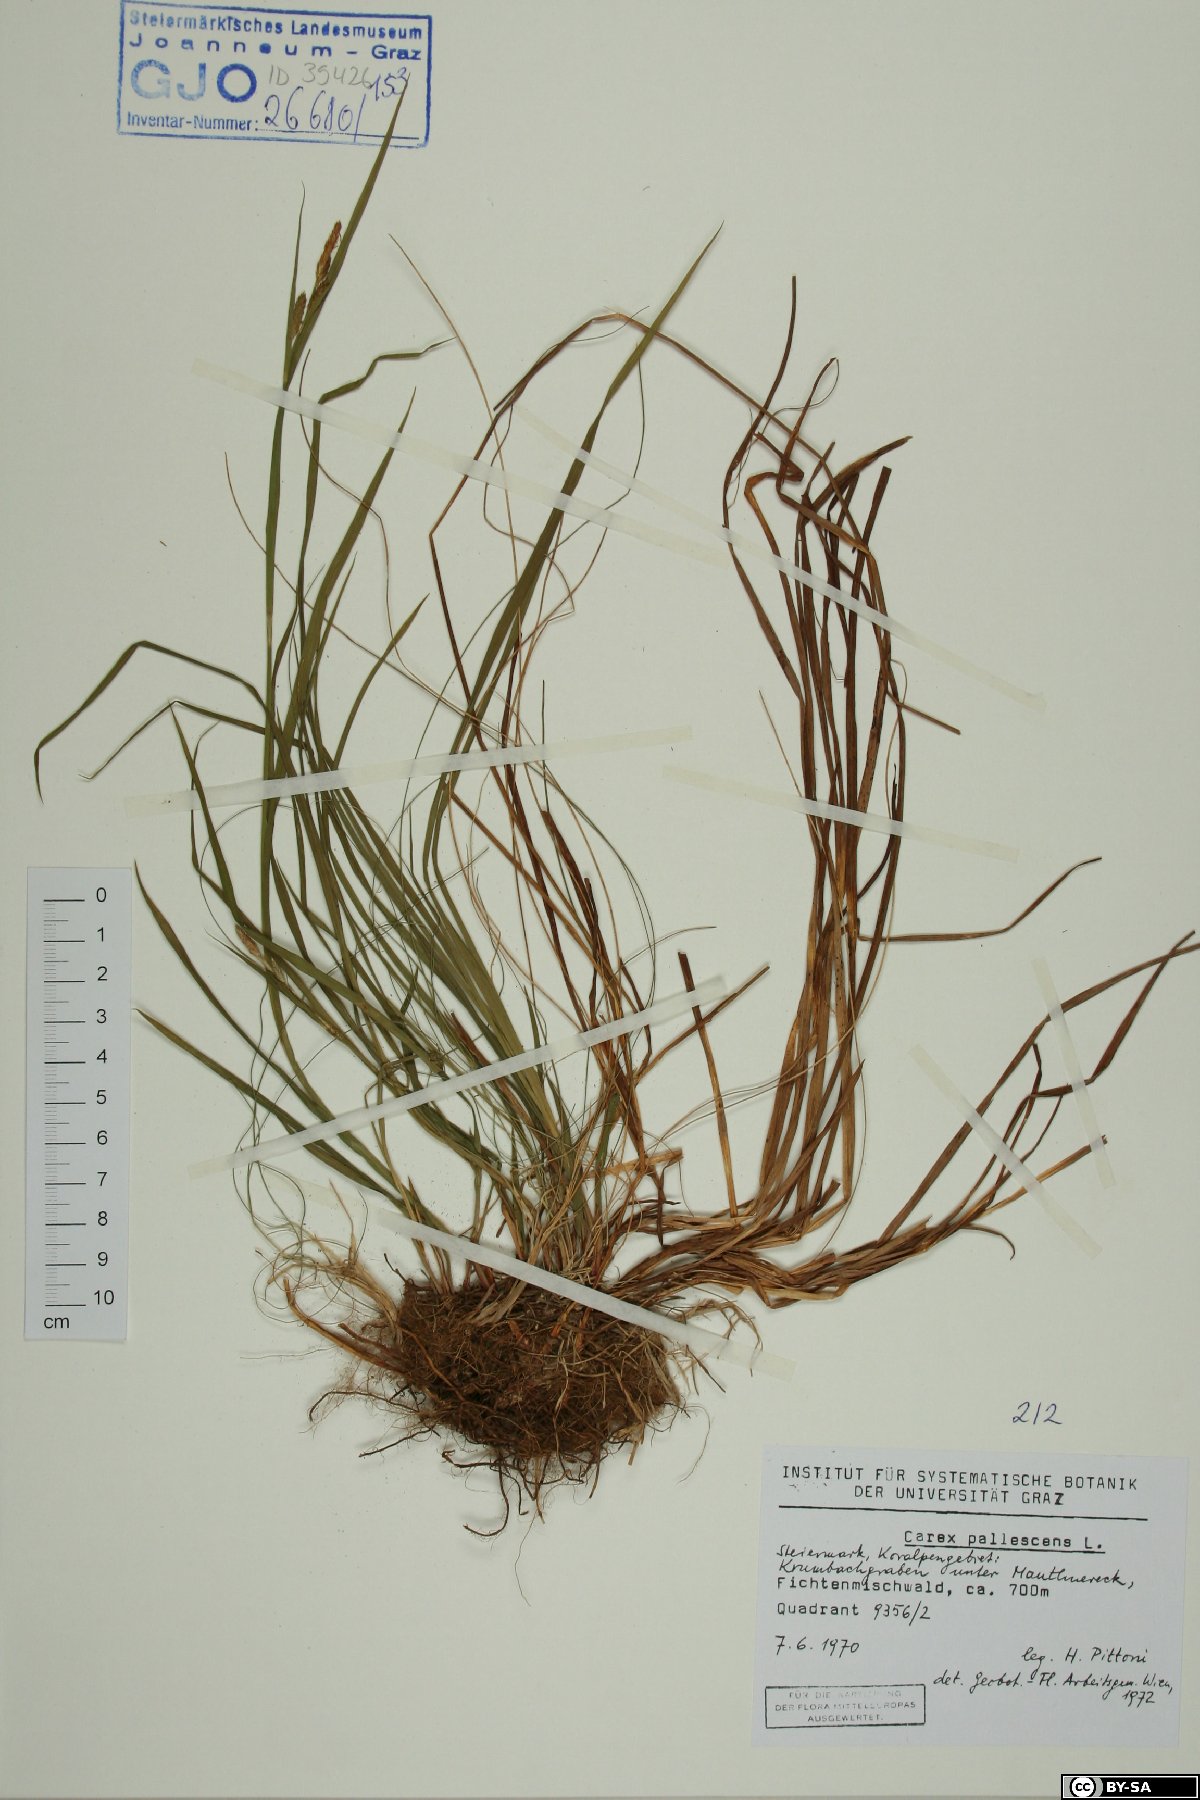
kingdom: Plantae
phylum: Tracheophyta
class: Liliopsida
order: Poales
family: Cyperaceae
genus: Carex
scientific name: Carex pallescens
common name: Pale sedge
